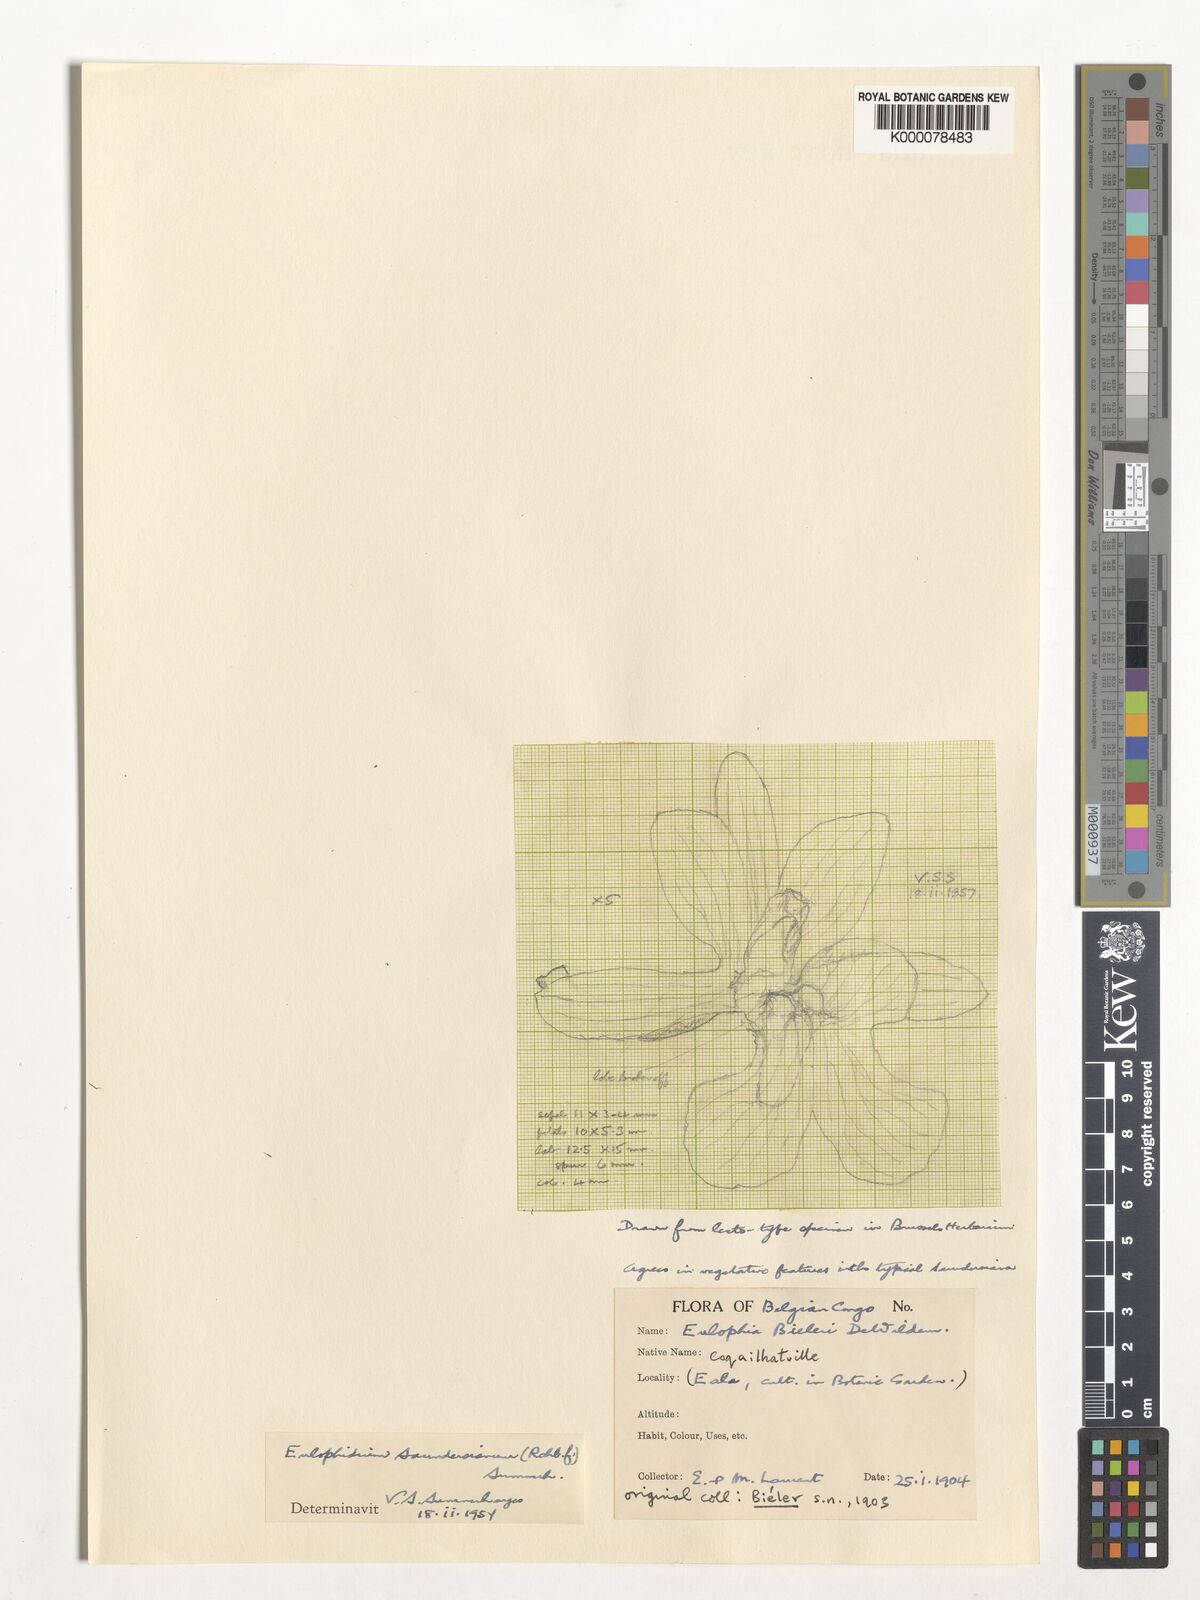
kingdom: Plantae
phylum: Tracheophyta
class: Liliopsida
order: Asparagales
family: Orchidaceae
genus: Eulophia
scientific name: Eulophia saundersiana
